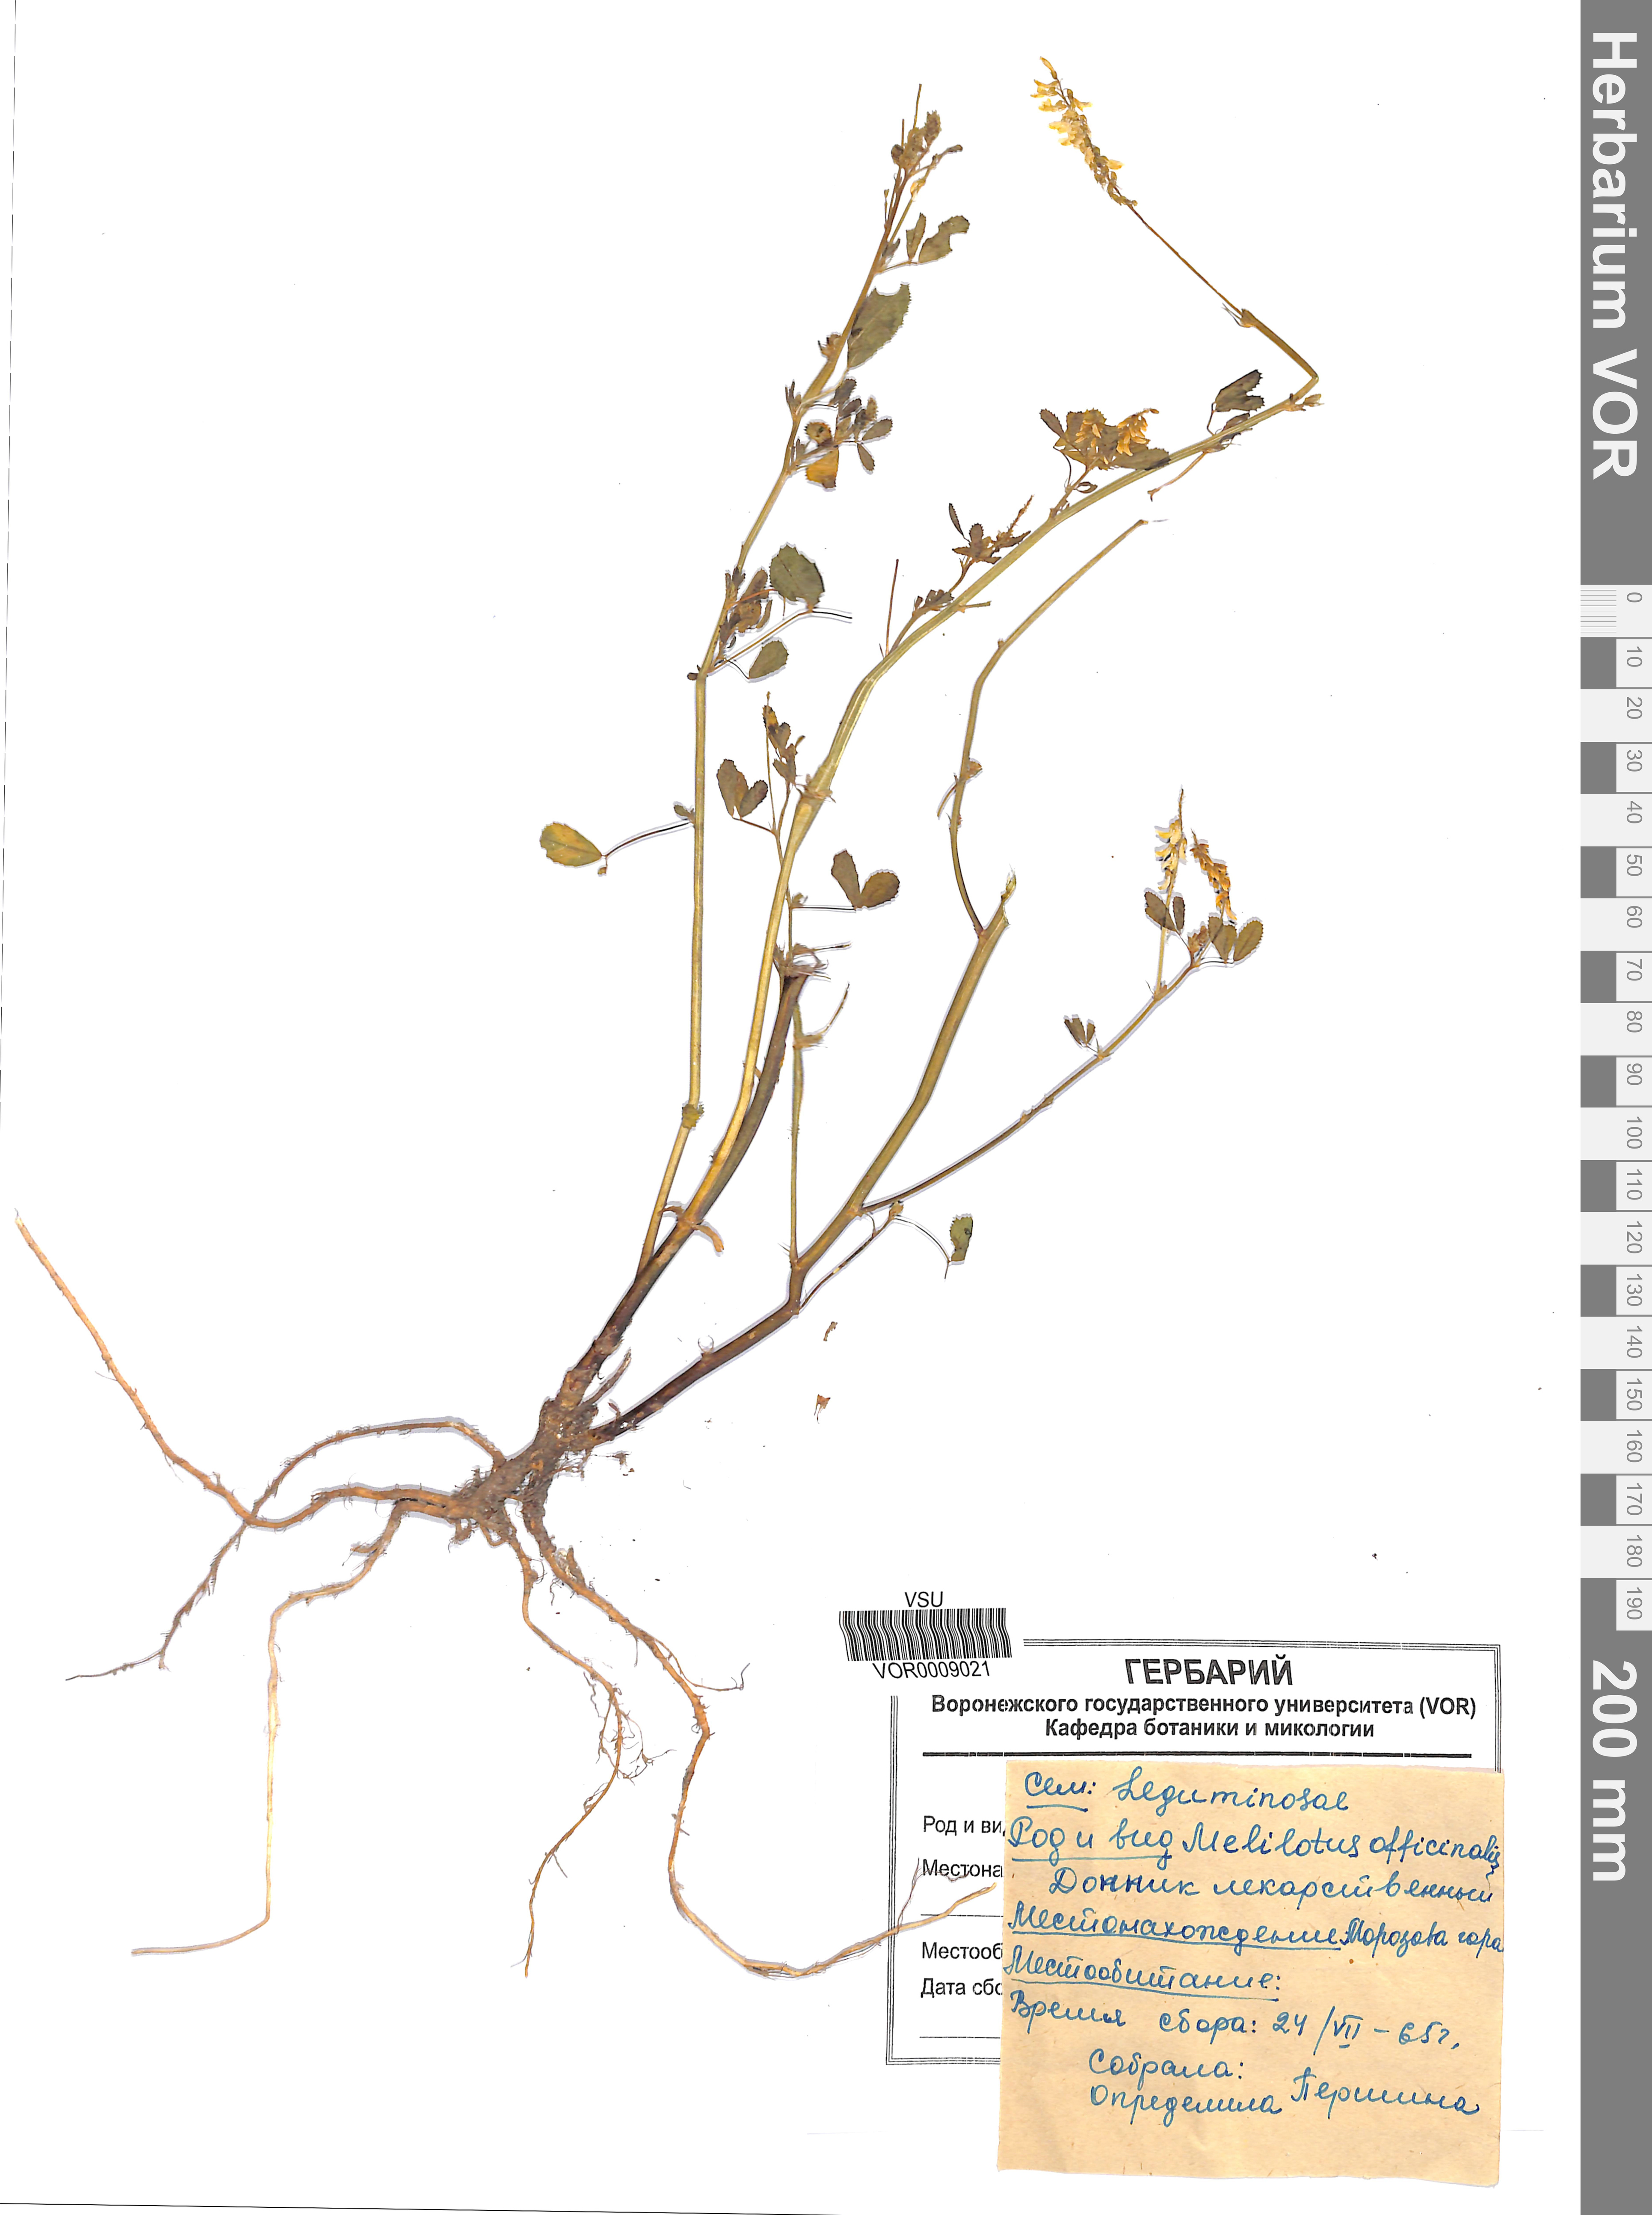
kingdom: Plantae
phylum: Tracheophyta
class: Magnoliopsida
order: Fabales
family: Fabaceae
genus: Melilotus
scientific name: Melilotus officinalis
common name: Sweetclover
